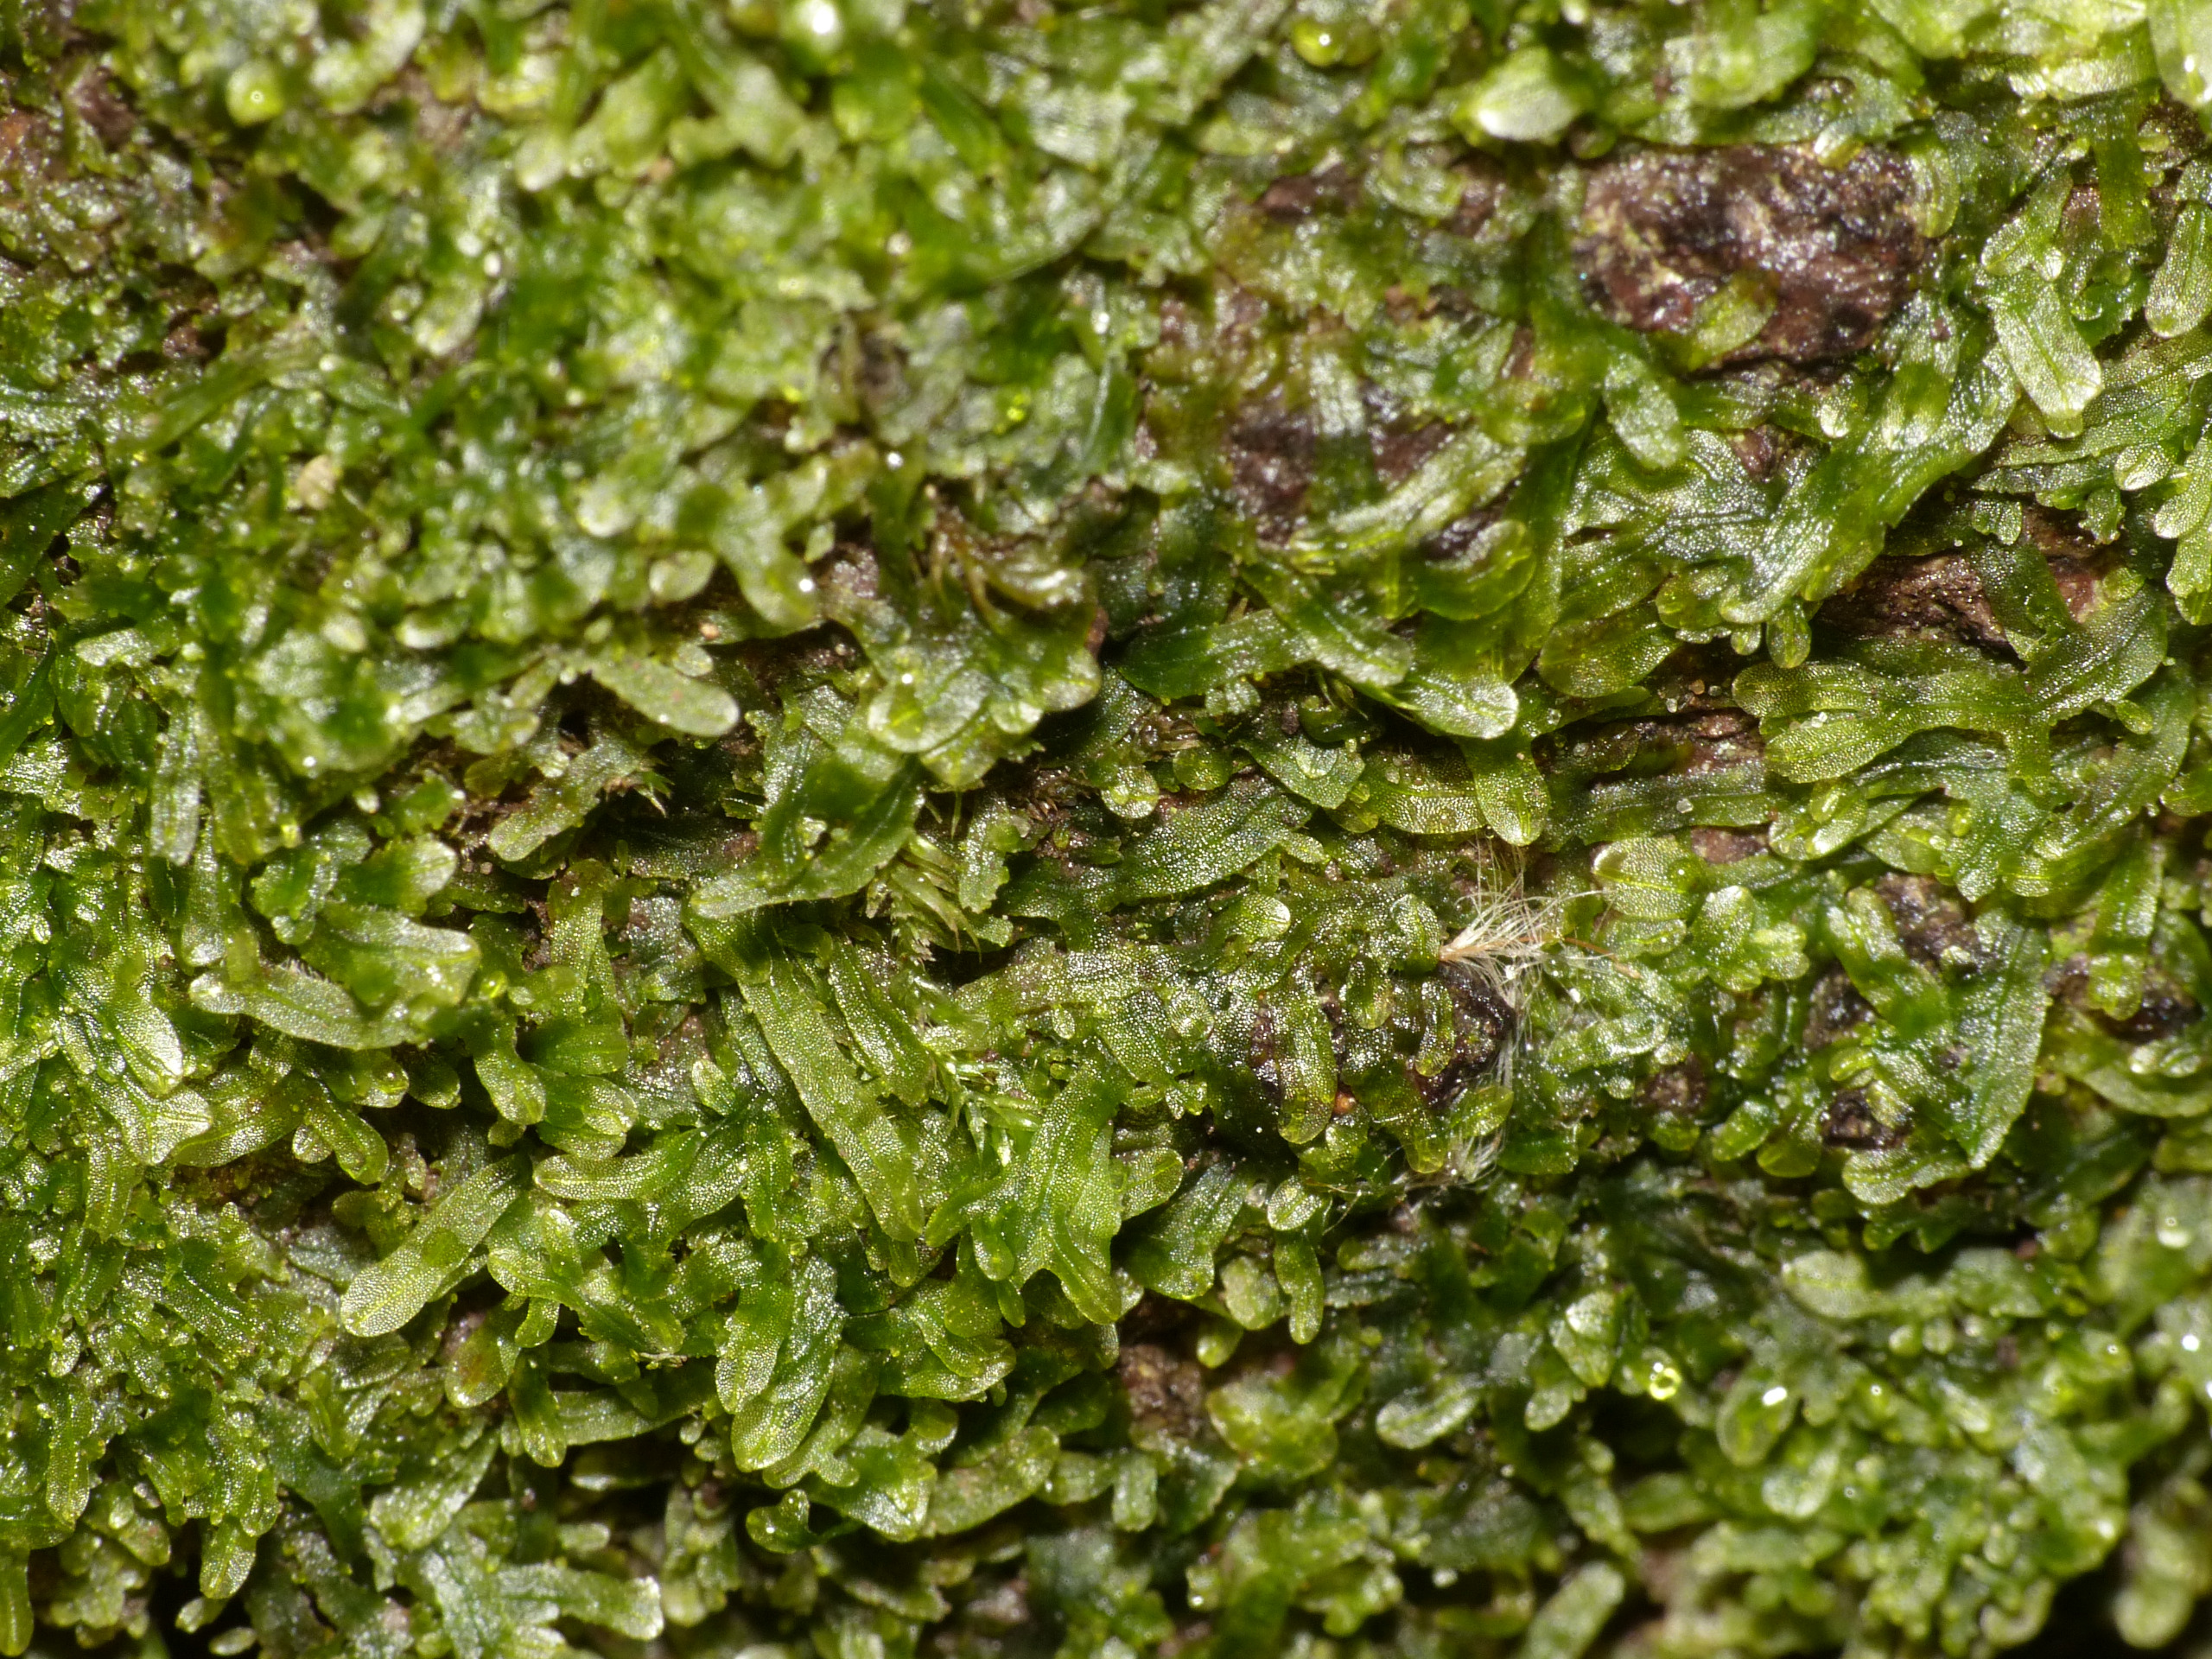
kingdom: Plantae
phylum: Marchantiophyta
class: Jungermanniopsida
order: Metzgeriales
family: Metzgeriaceae
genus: Metzgeria
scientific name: Metzgeria furcata
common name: Almindelig gaffelløv
